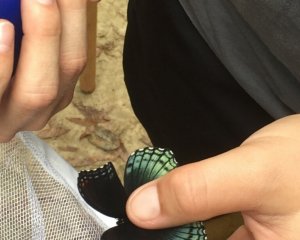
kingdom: Animalia
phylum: Arthropoda
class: Insecta
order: Lepidoptera
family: Nymphalidae
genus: Limenitis
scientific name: Limenitis astyanax
